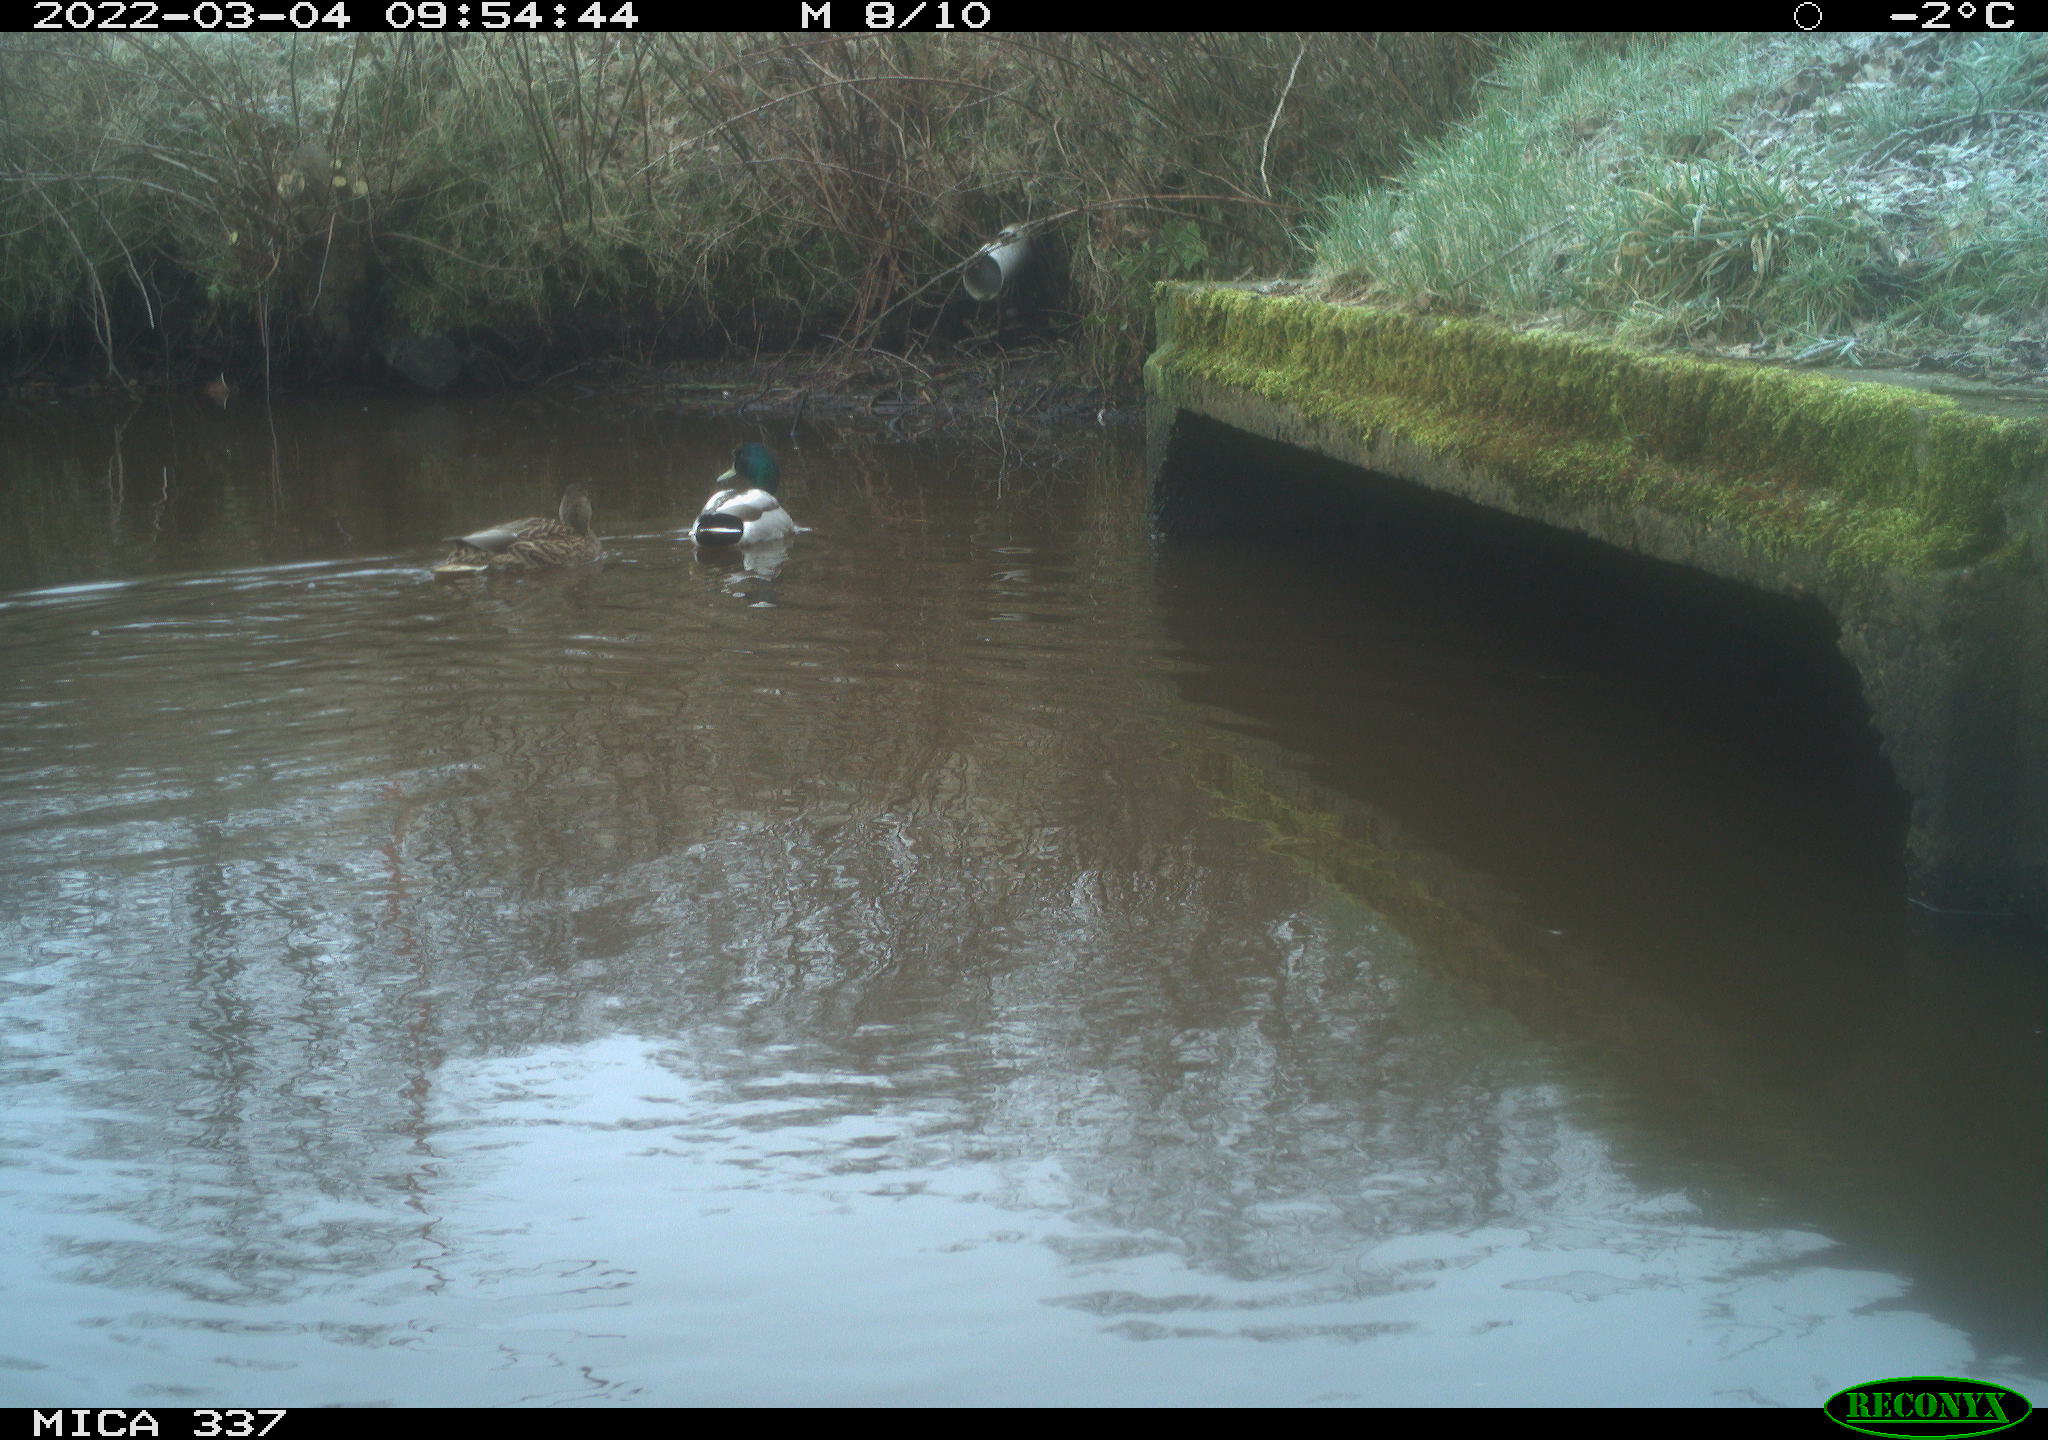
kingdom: Animalia
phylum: Chordata
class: Aves
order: Anseriformes
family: Anatidae
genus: Anas
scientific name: Anas platyrhynchos
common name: Mallard
